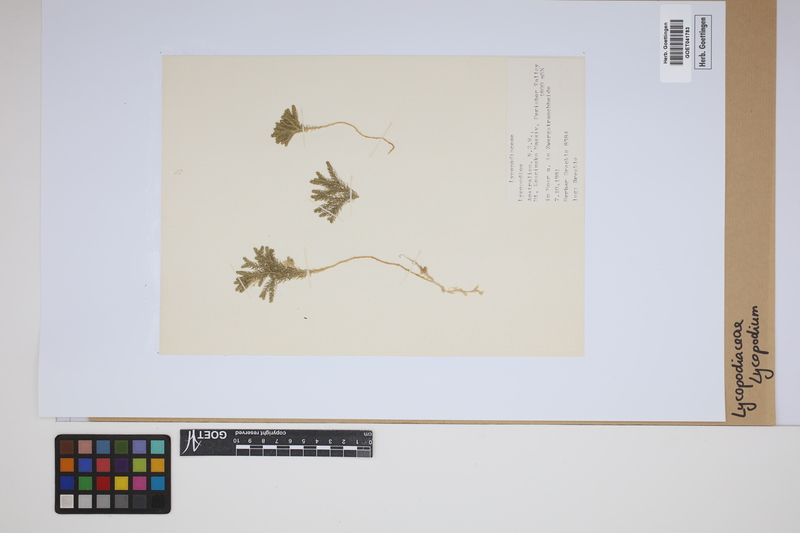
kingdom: Plantae
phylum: Tracheophyta
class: Lycopodiopsida
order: Lycopodiales
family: Lycopodiaceae
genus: Lycopodium
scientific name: Lycopodium
